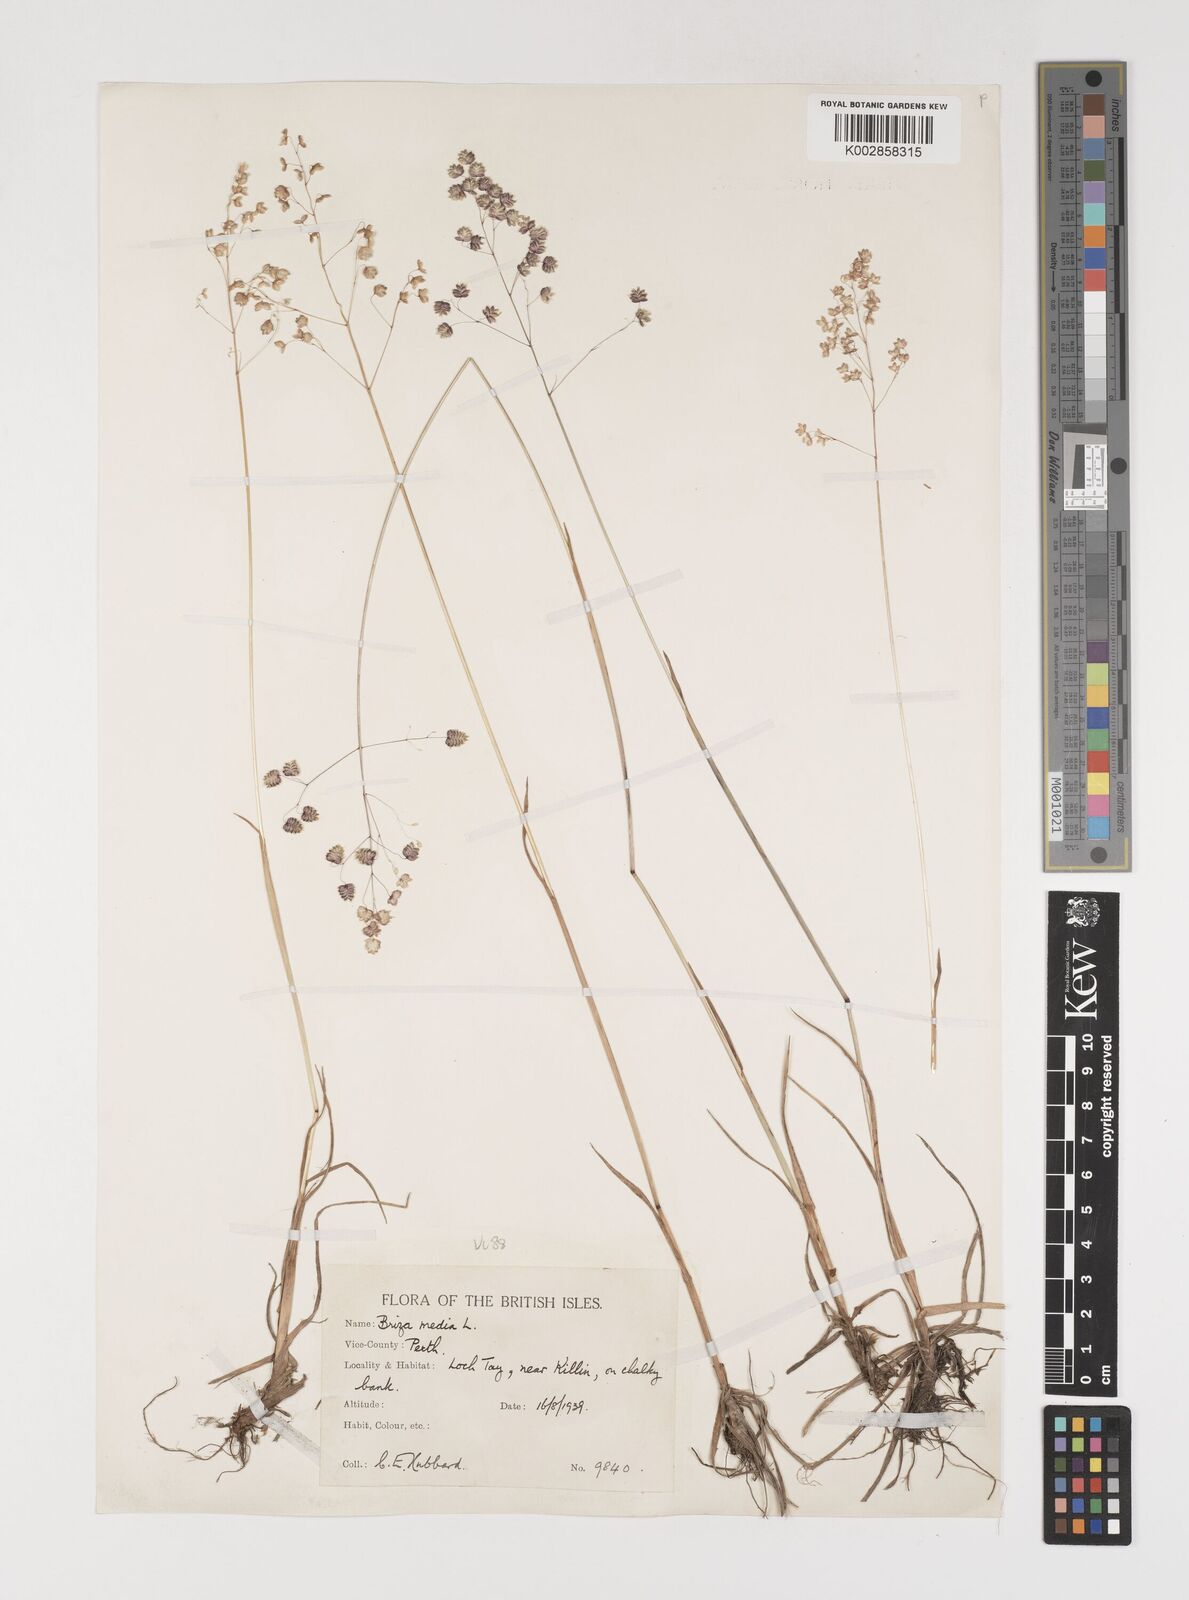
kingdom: Plantae
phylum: Tracheophyta
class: Liliopsida
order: Poales
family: Poaceae
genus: Briza
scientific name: Briza media
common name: Quaking grass
